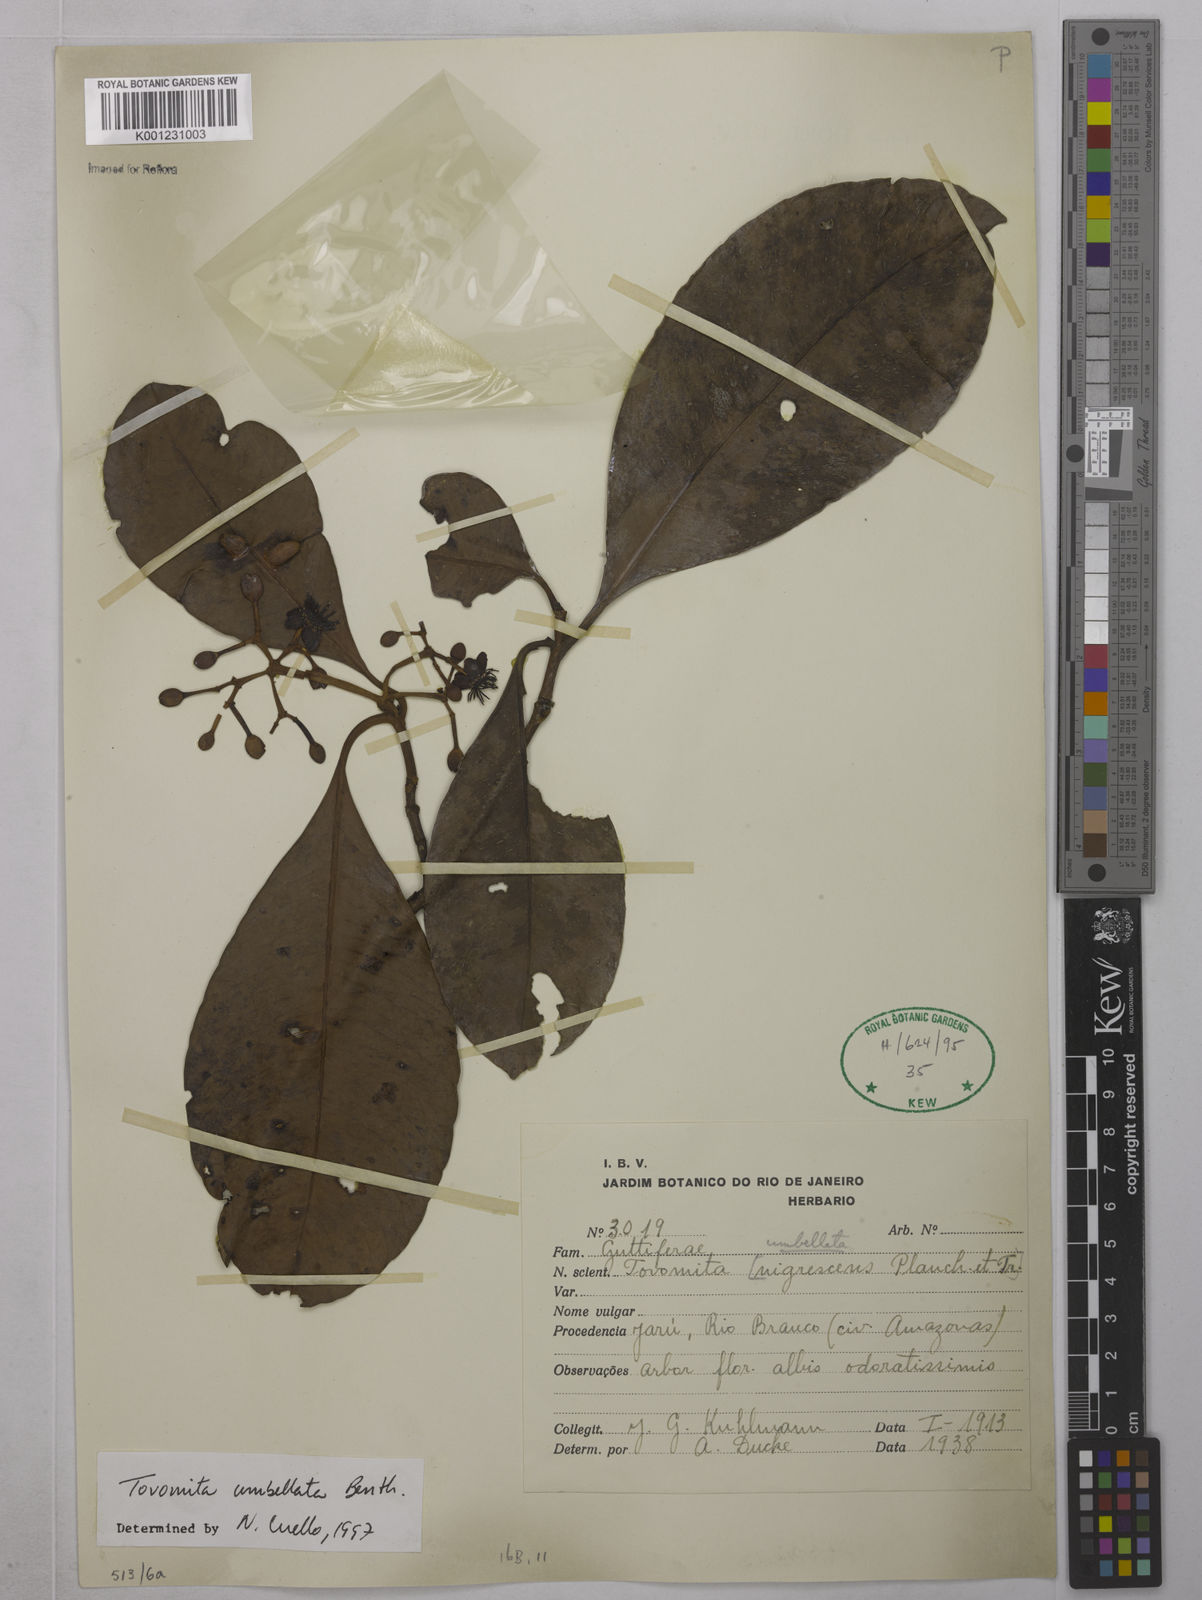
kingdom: Plantae
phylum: Tracheophyta
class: Magnoliopsida
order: Malpighiales
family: Clusiaceae
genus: Tovomita
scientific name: Tovomita umbellata
